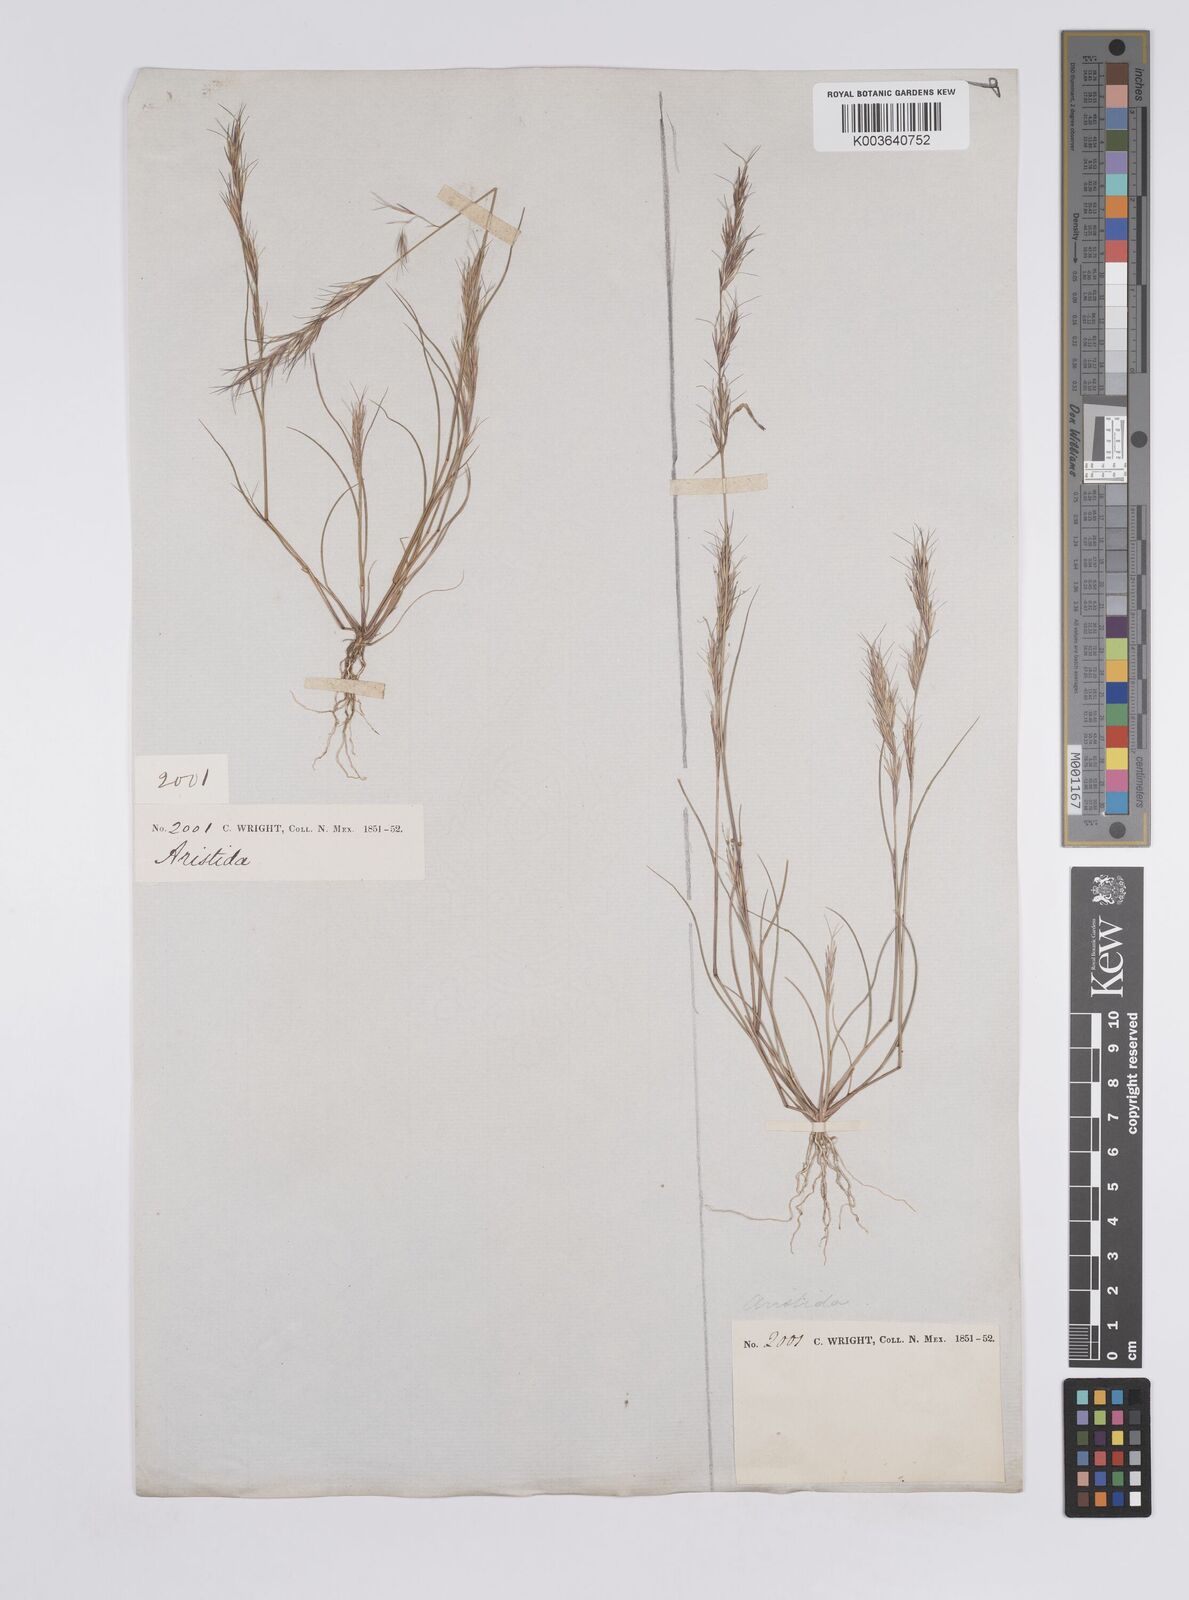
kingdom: Plantae
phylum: Tracheophyta
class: Liliopsida
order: Poales
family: Poaceae
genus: Aristida
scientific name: Aristida adscensionis
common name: Sixweeks threeawn
